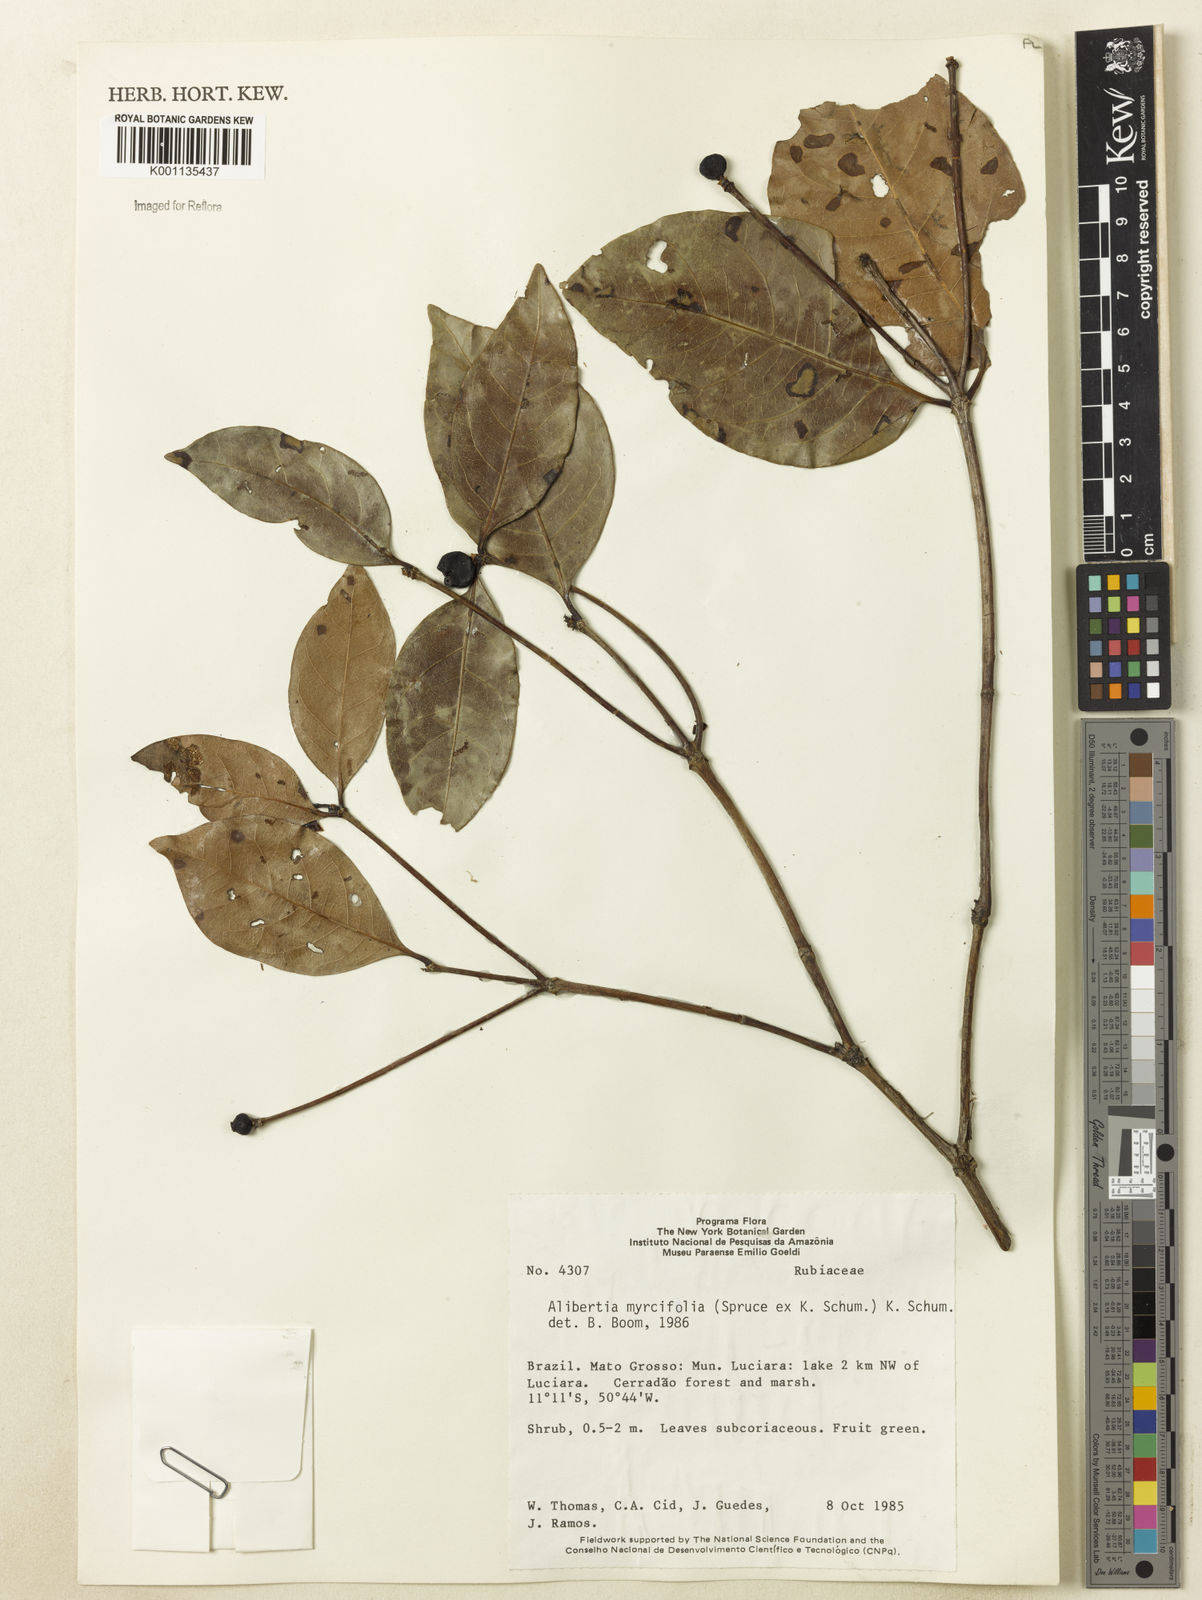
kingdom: Plantae
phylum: Tracheophyta
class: Magnoliopsida
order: Gentianales
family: Rubiaceae
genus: Cordiera
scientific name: Cordiera myrciifolia
